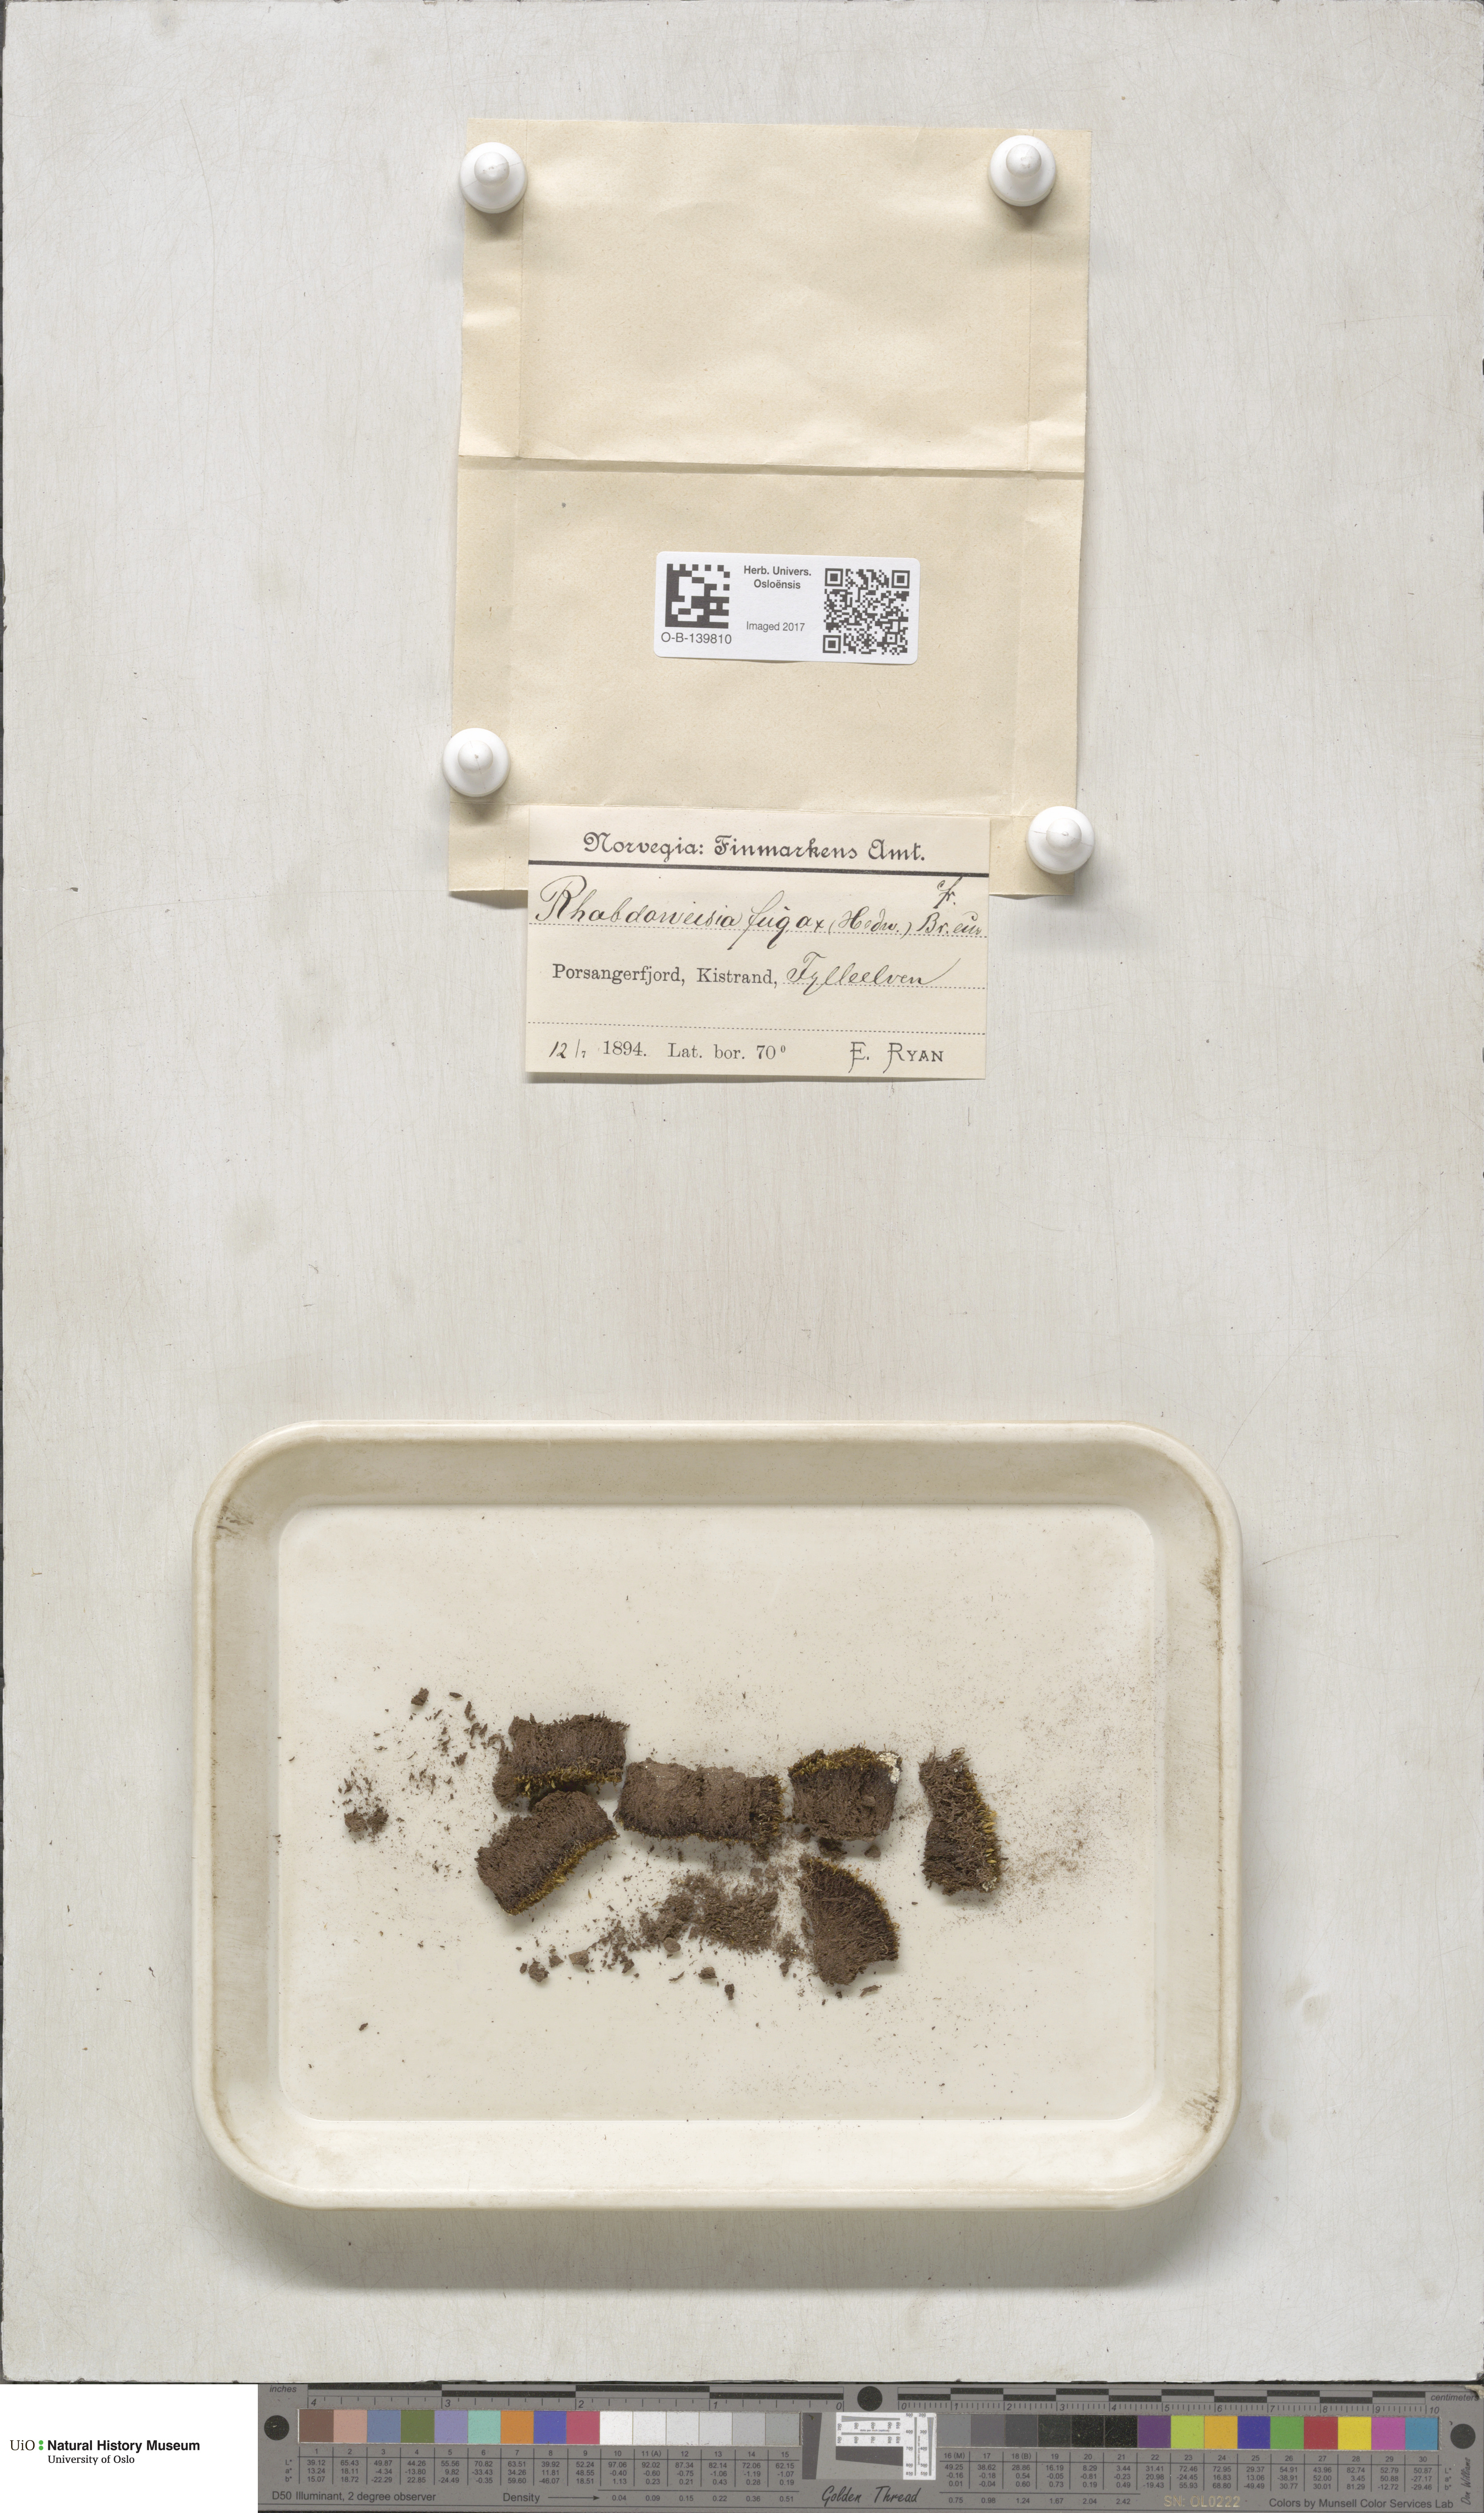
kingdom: Plantae
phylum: Bryophyta
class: Bryopsida
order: Dicranales
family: Rhabdoweisiaceae
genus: Rhabdoweisia
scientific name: Rhabdoweisia fugax
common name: Dwarf streak-moss
